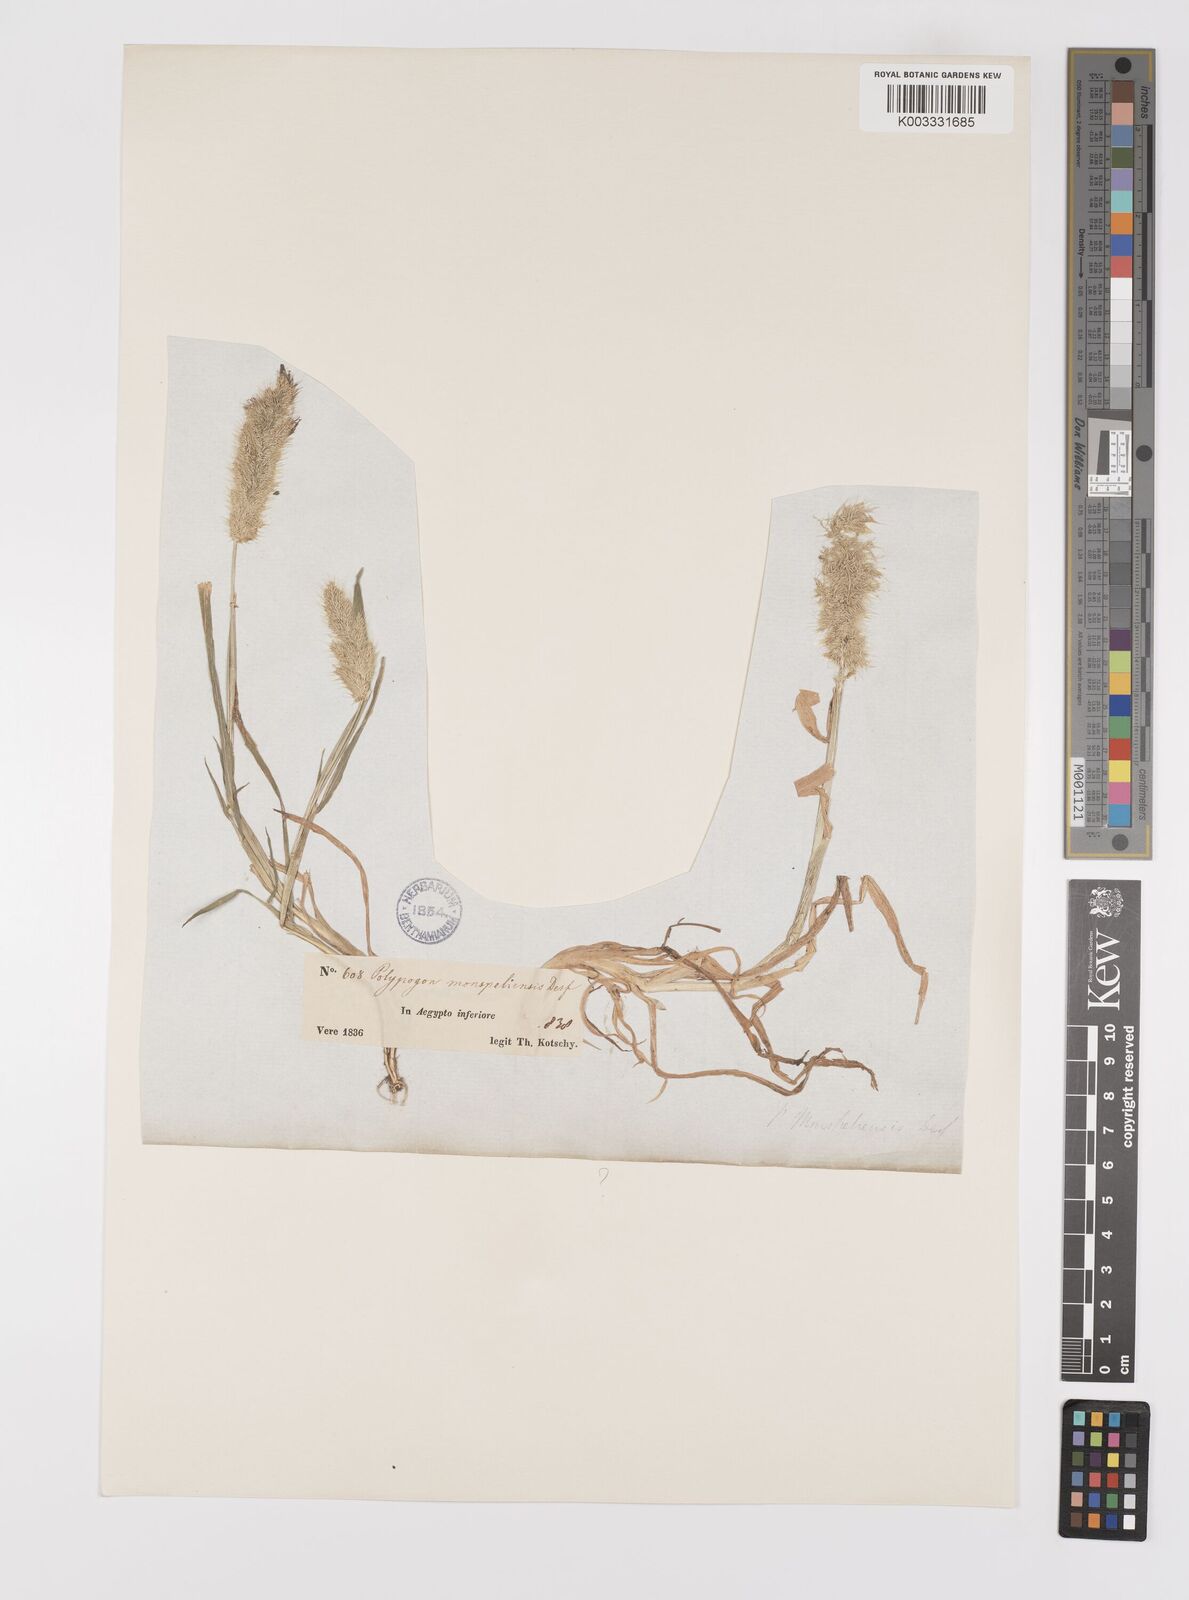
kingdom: Plantae
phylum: Tracheophyta
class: Liliopsida
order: Poales
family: Poaceae
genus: Polypogon
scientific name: Polypogon monspeliensis
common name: Annual rabbitsfoot grass
